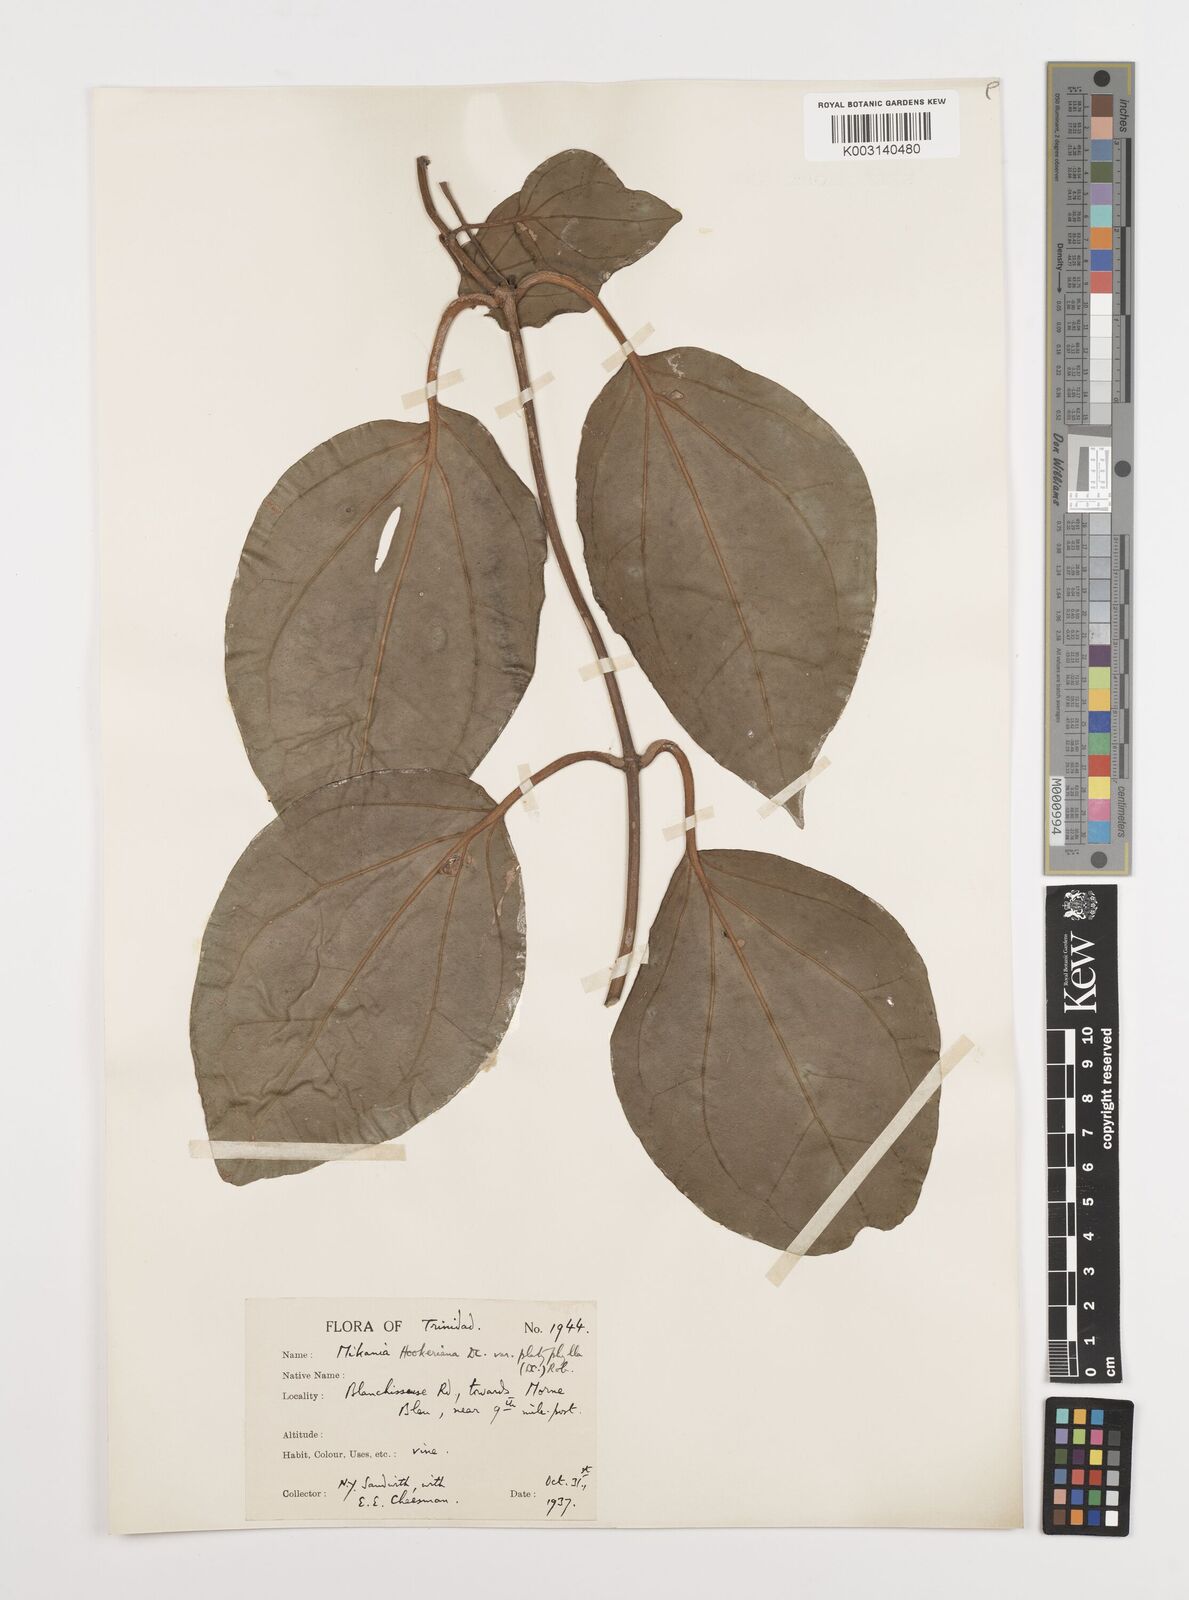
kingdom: Plantae
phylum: Tracheophyta
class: Magnoliopsida
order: Asterales
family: Asteraceae
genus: Mikania
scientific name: Mikania hookeriana
